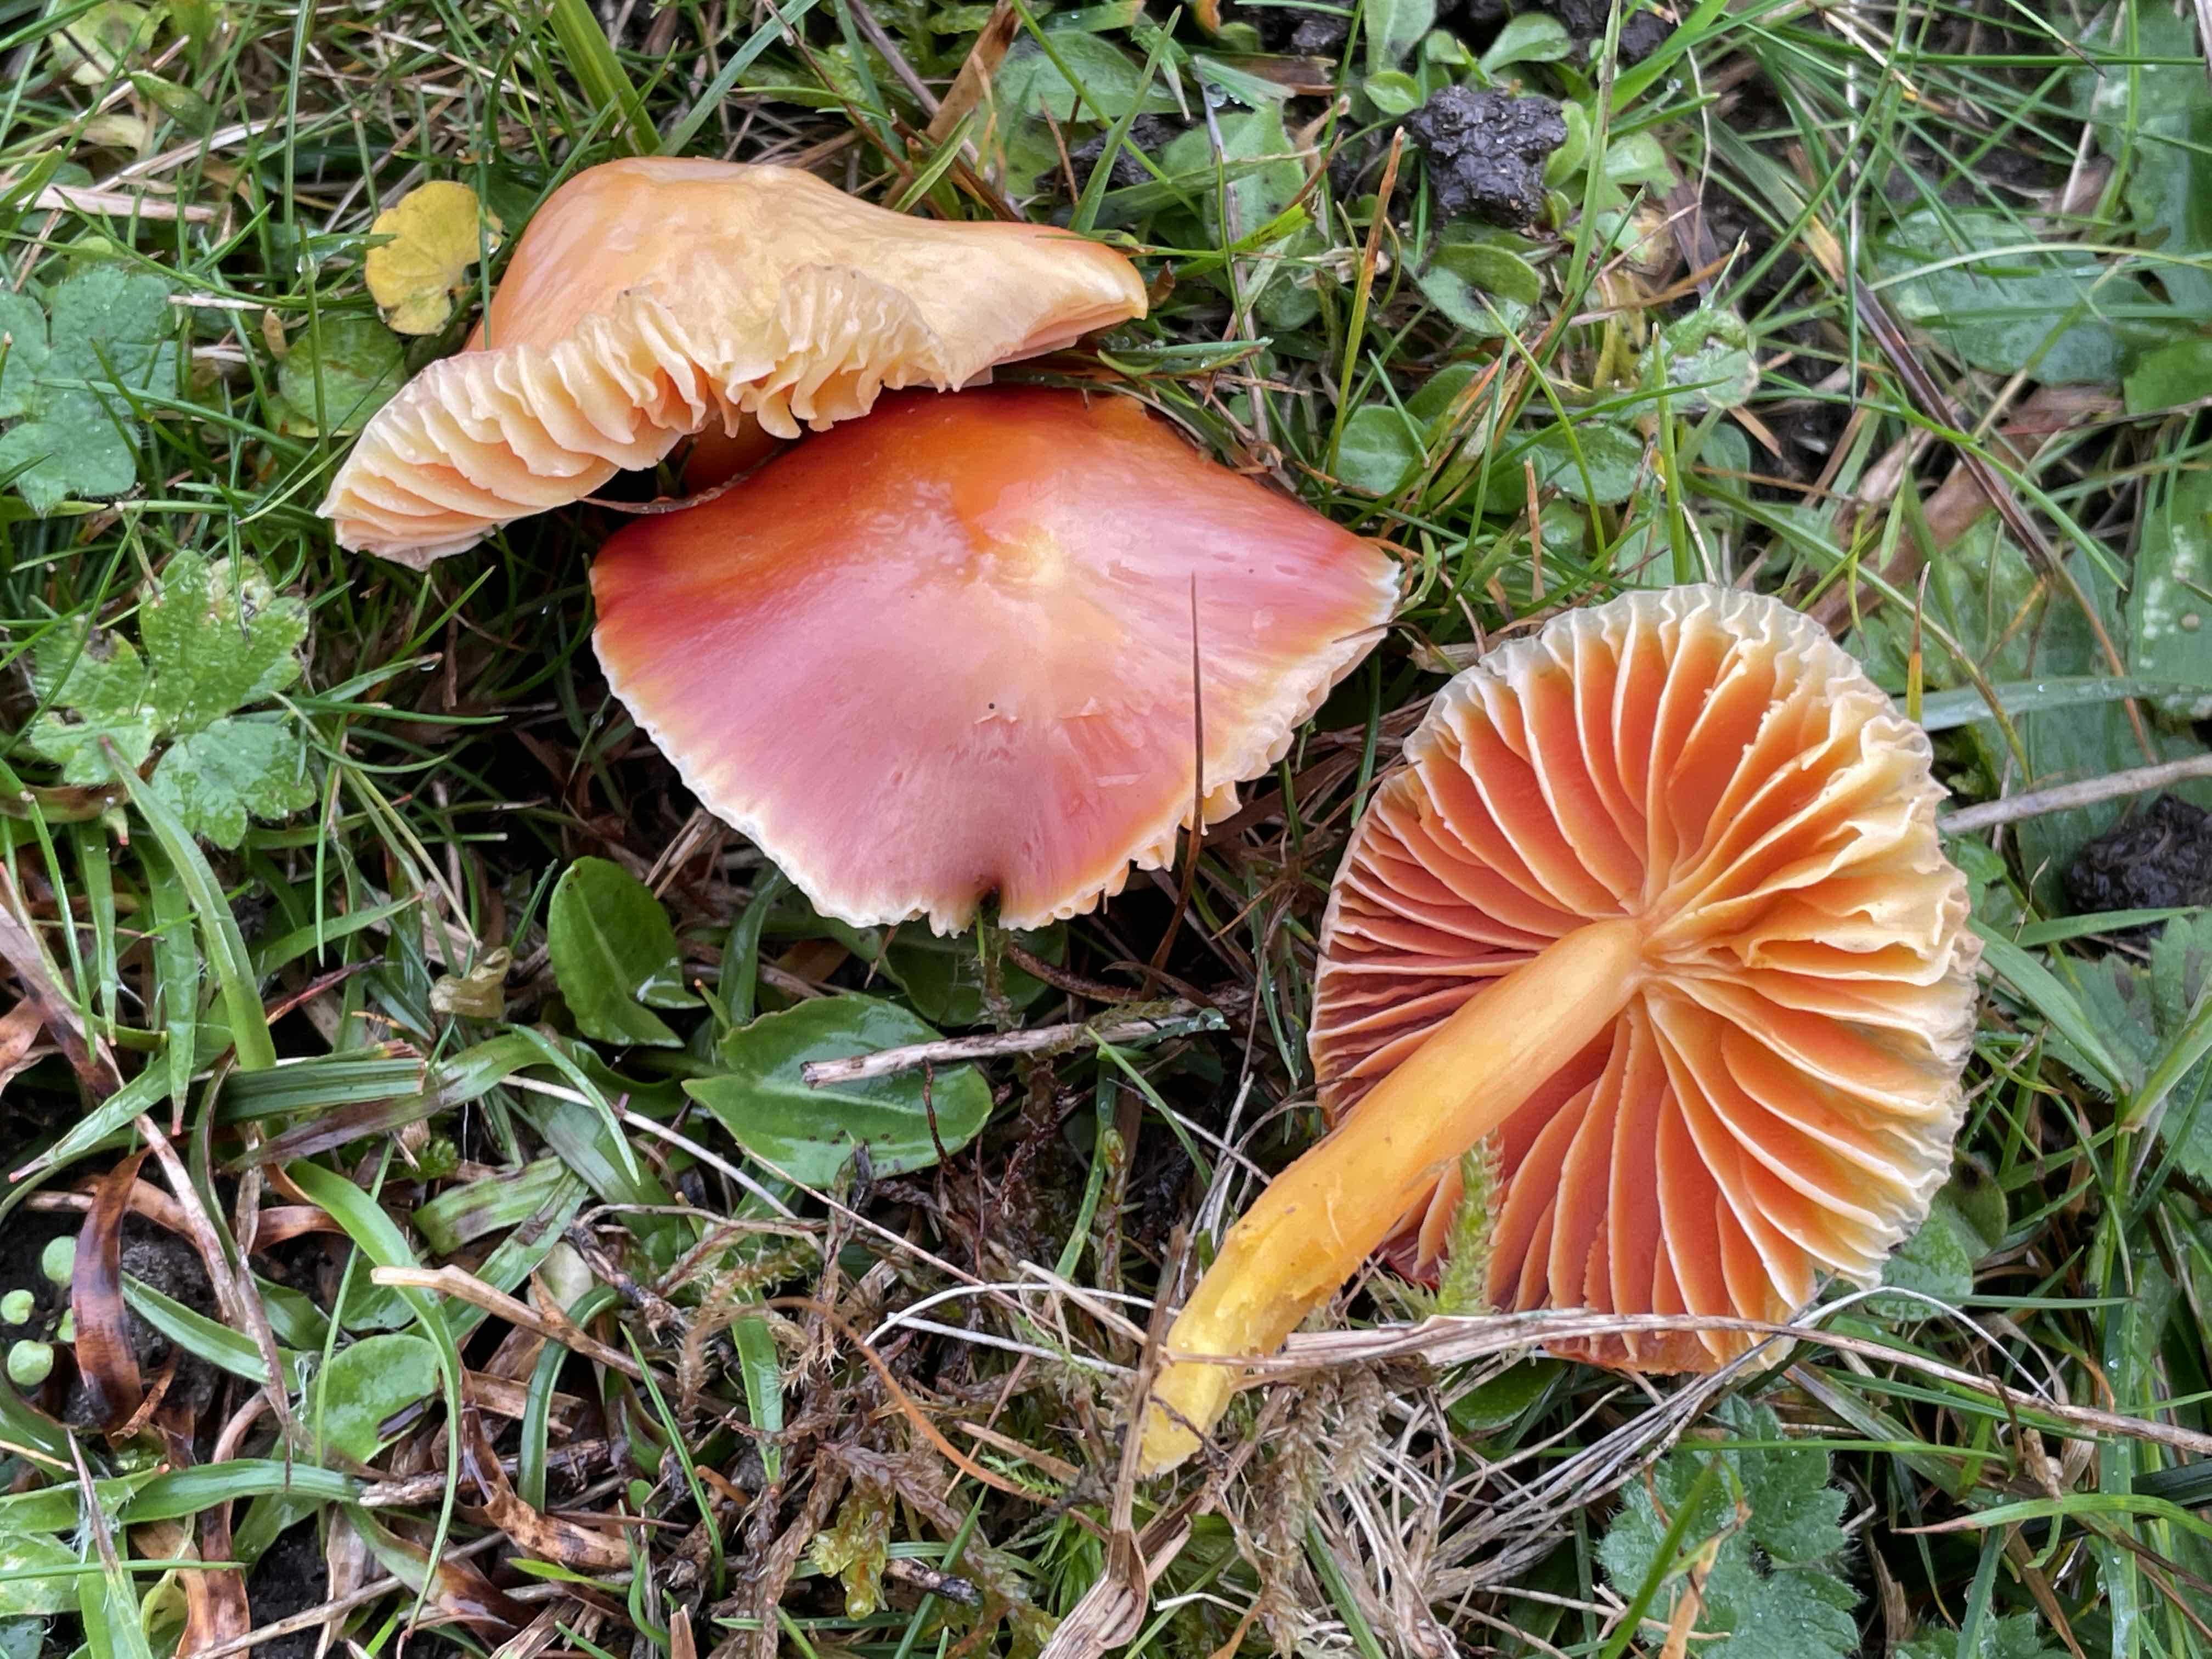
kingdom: Fungi
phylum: Basidiomycota
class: Agaricomycetes
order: Agaricales
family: Hygrophoraceae
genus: Hygrocybe
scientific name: Hygrocybe coccinea
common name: cinnober-vokshat
